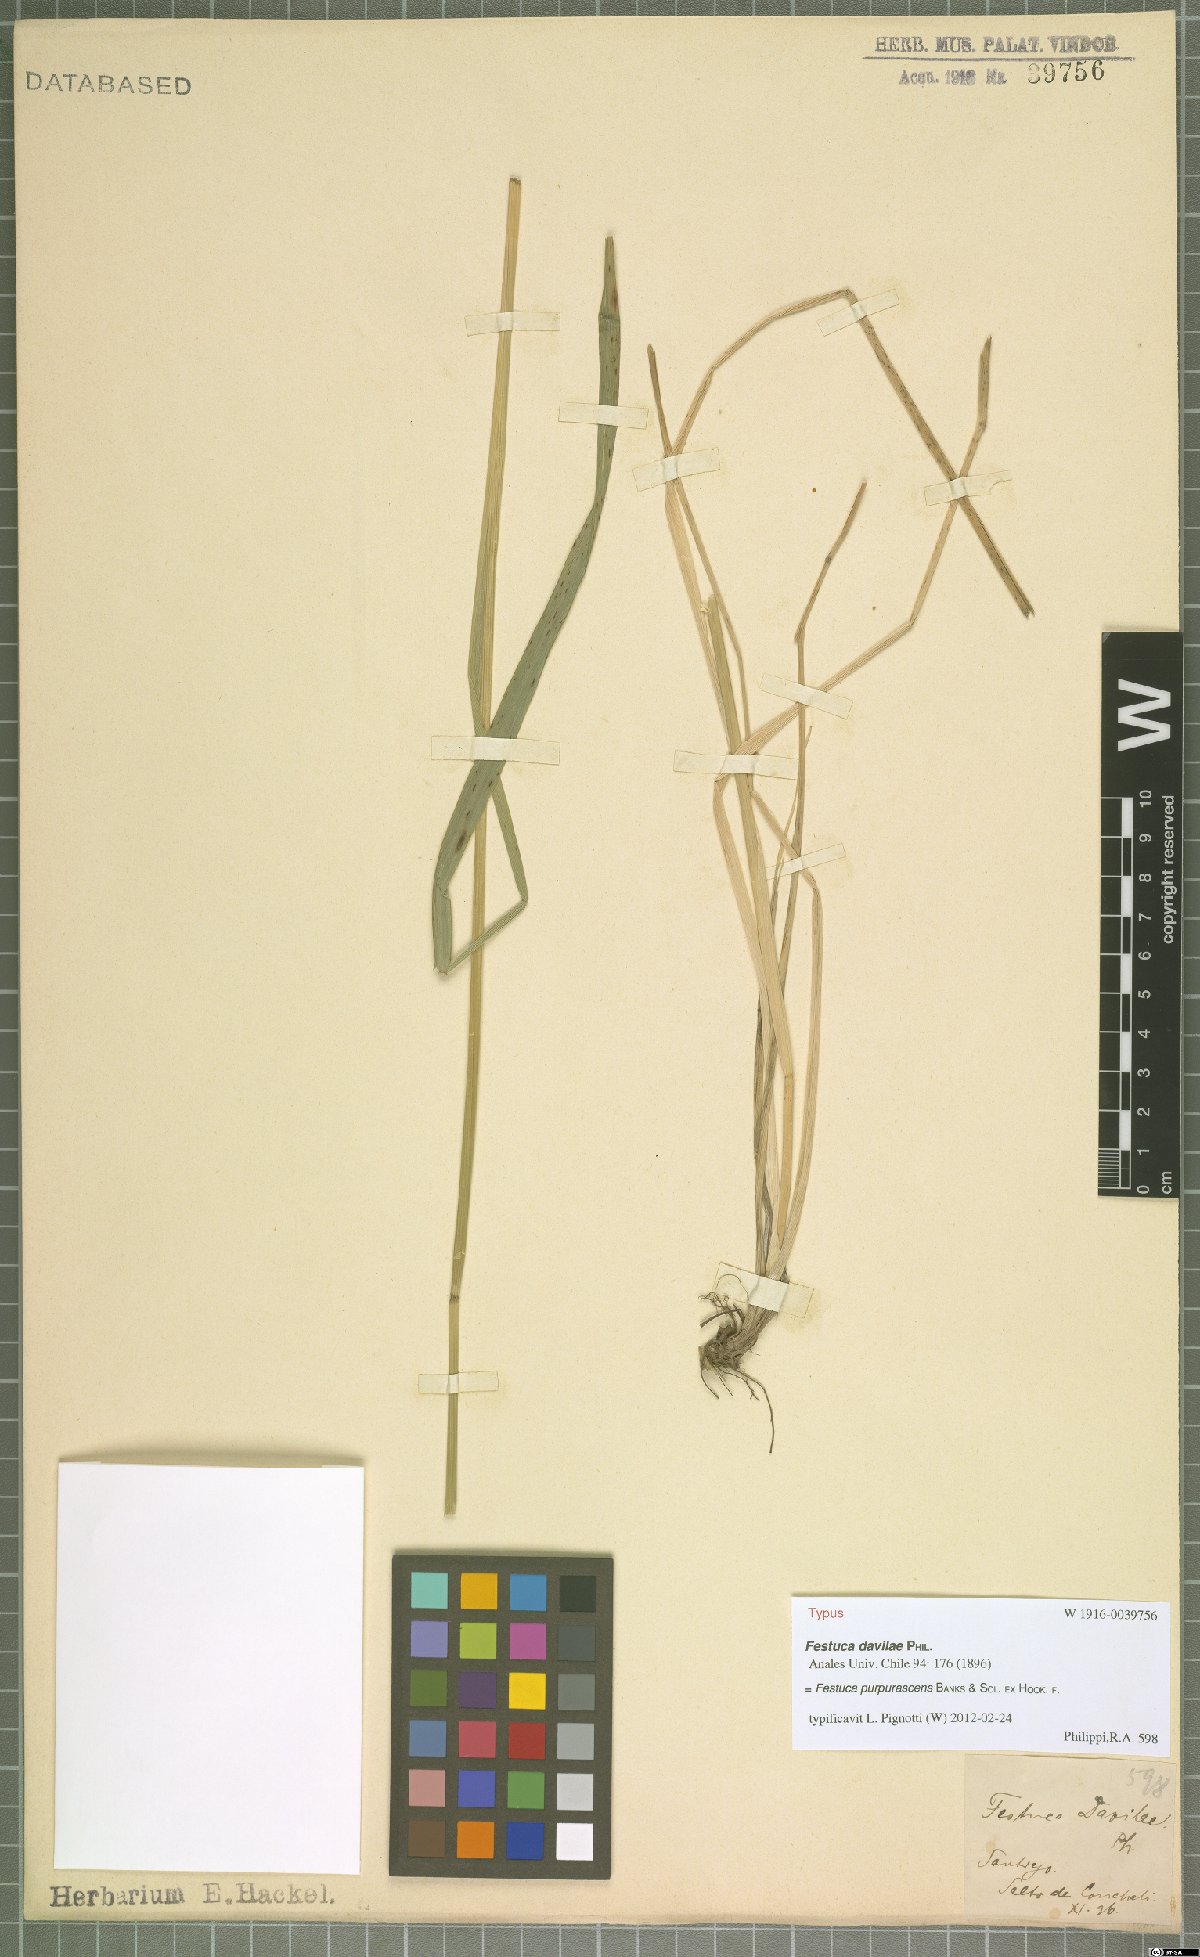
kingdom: Plantae
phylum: Tracheophyta
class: Liliopsida
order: Poales
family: Poaceae
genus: Festuca
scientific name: Festuca purpurascens
